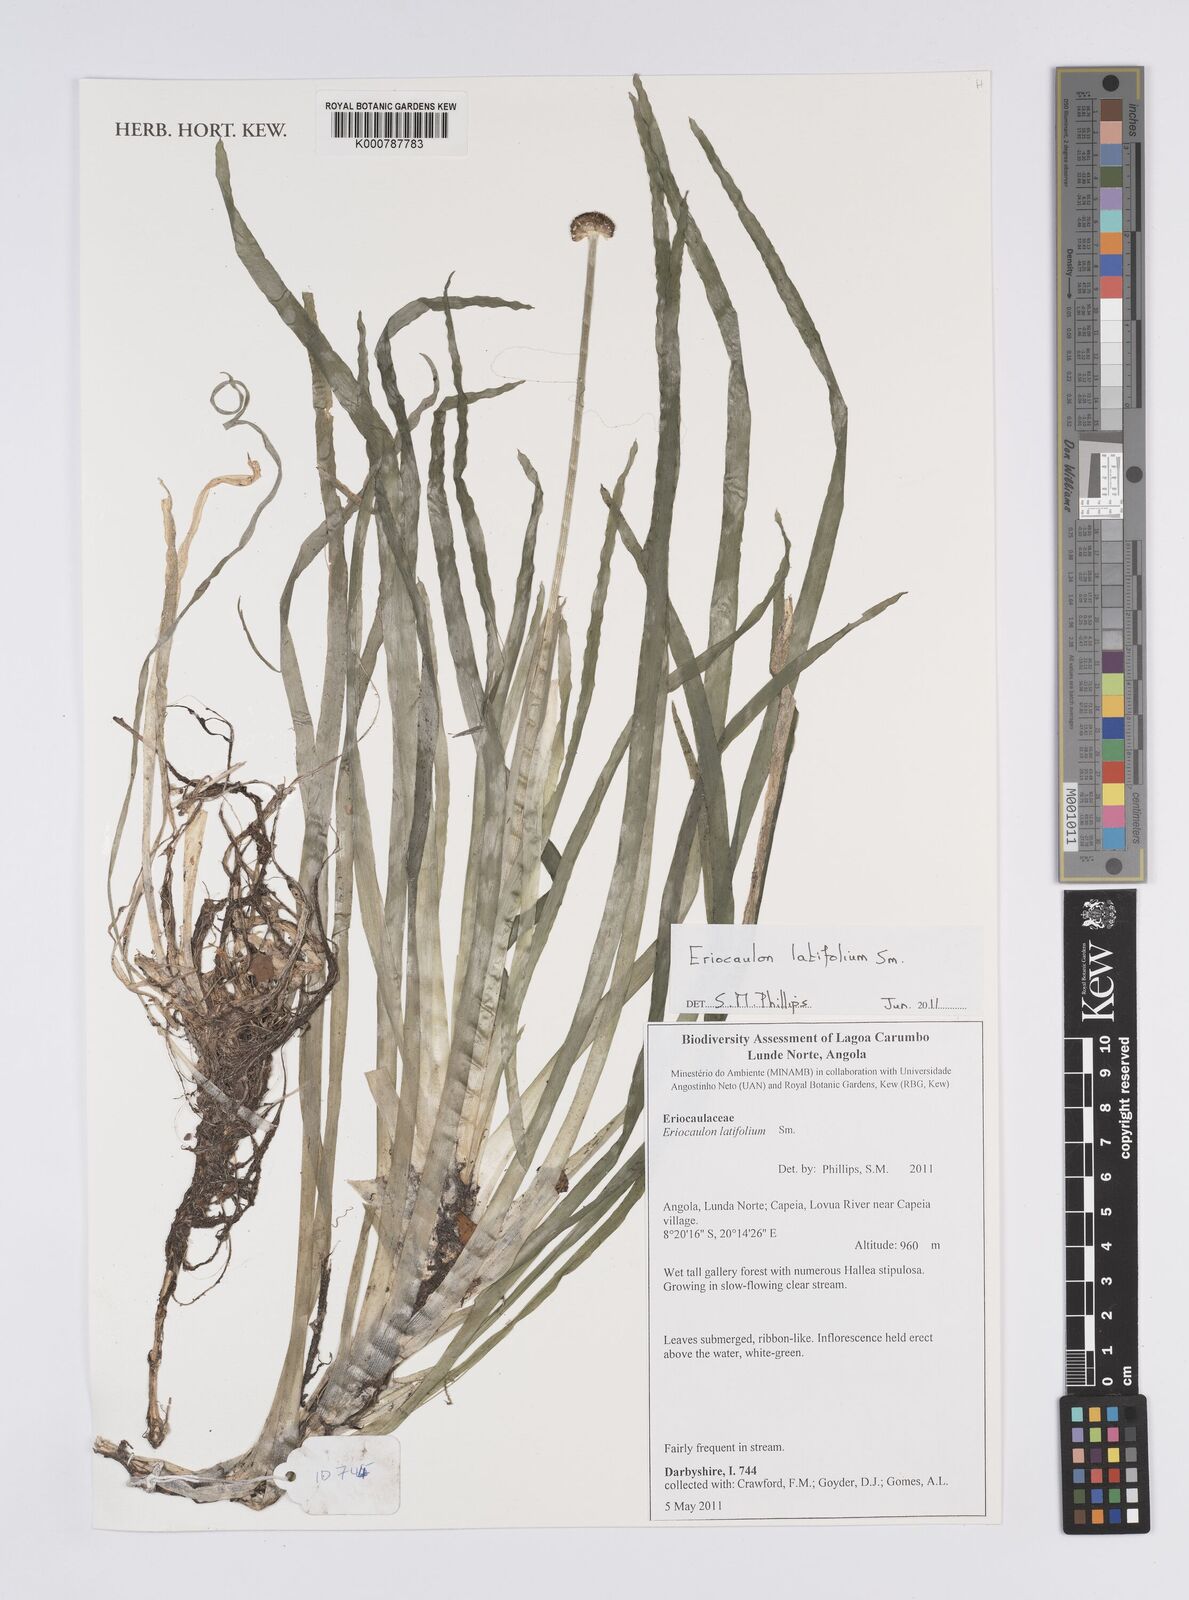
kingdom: Plantae
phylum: Tracheophyta
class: Liliopsida
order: Poales
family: Eriocaulaceae
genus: Eriocaulon
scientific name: Eriocaulon latifolium
